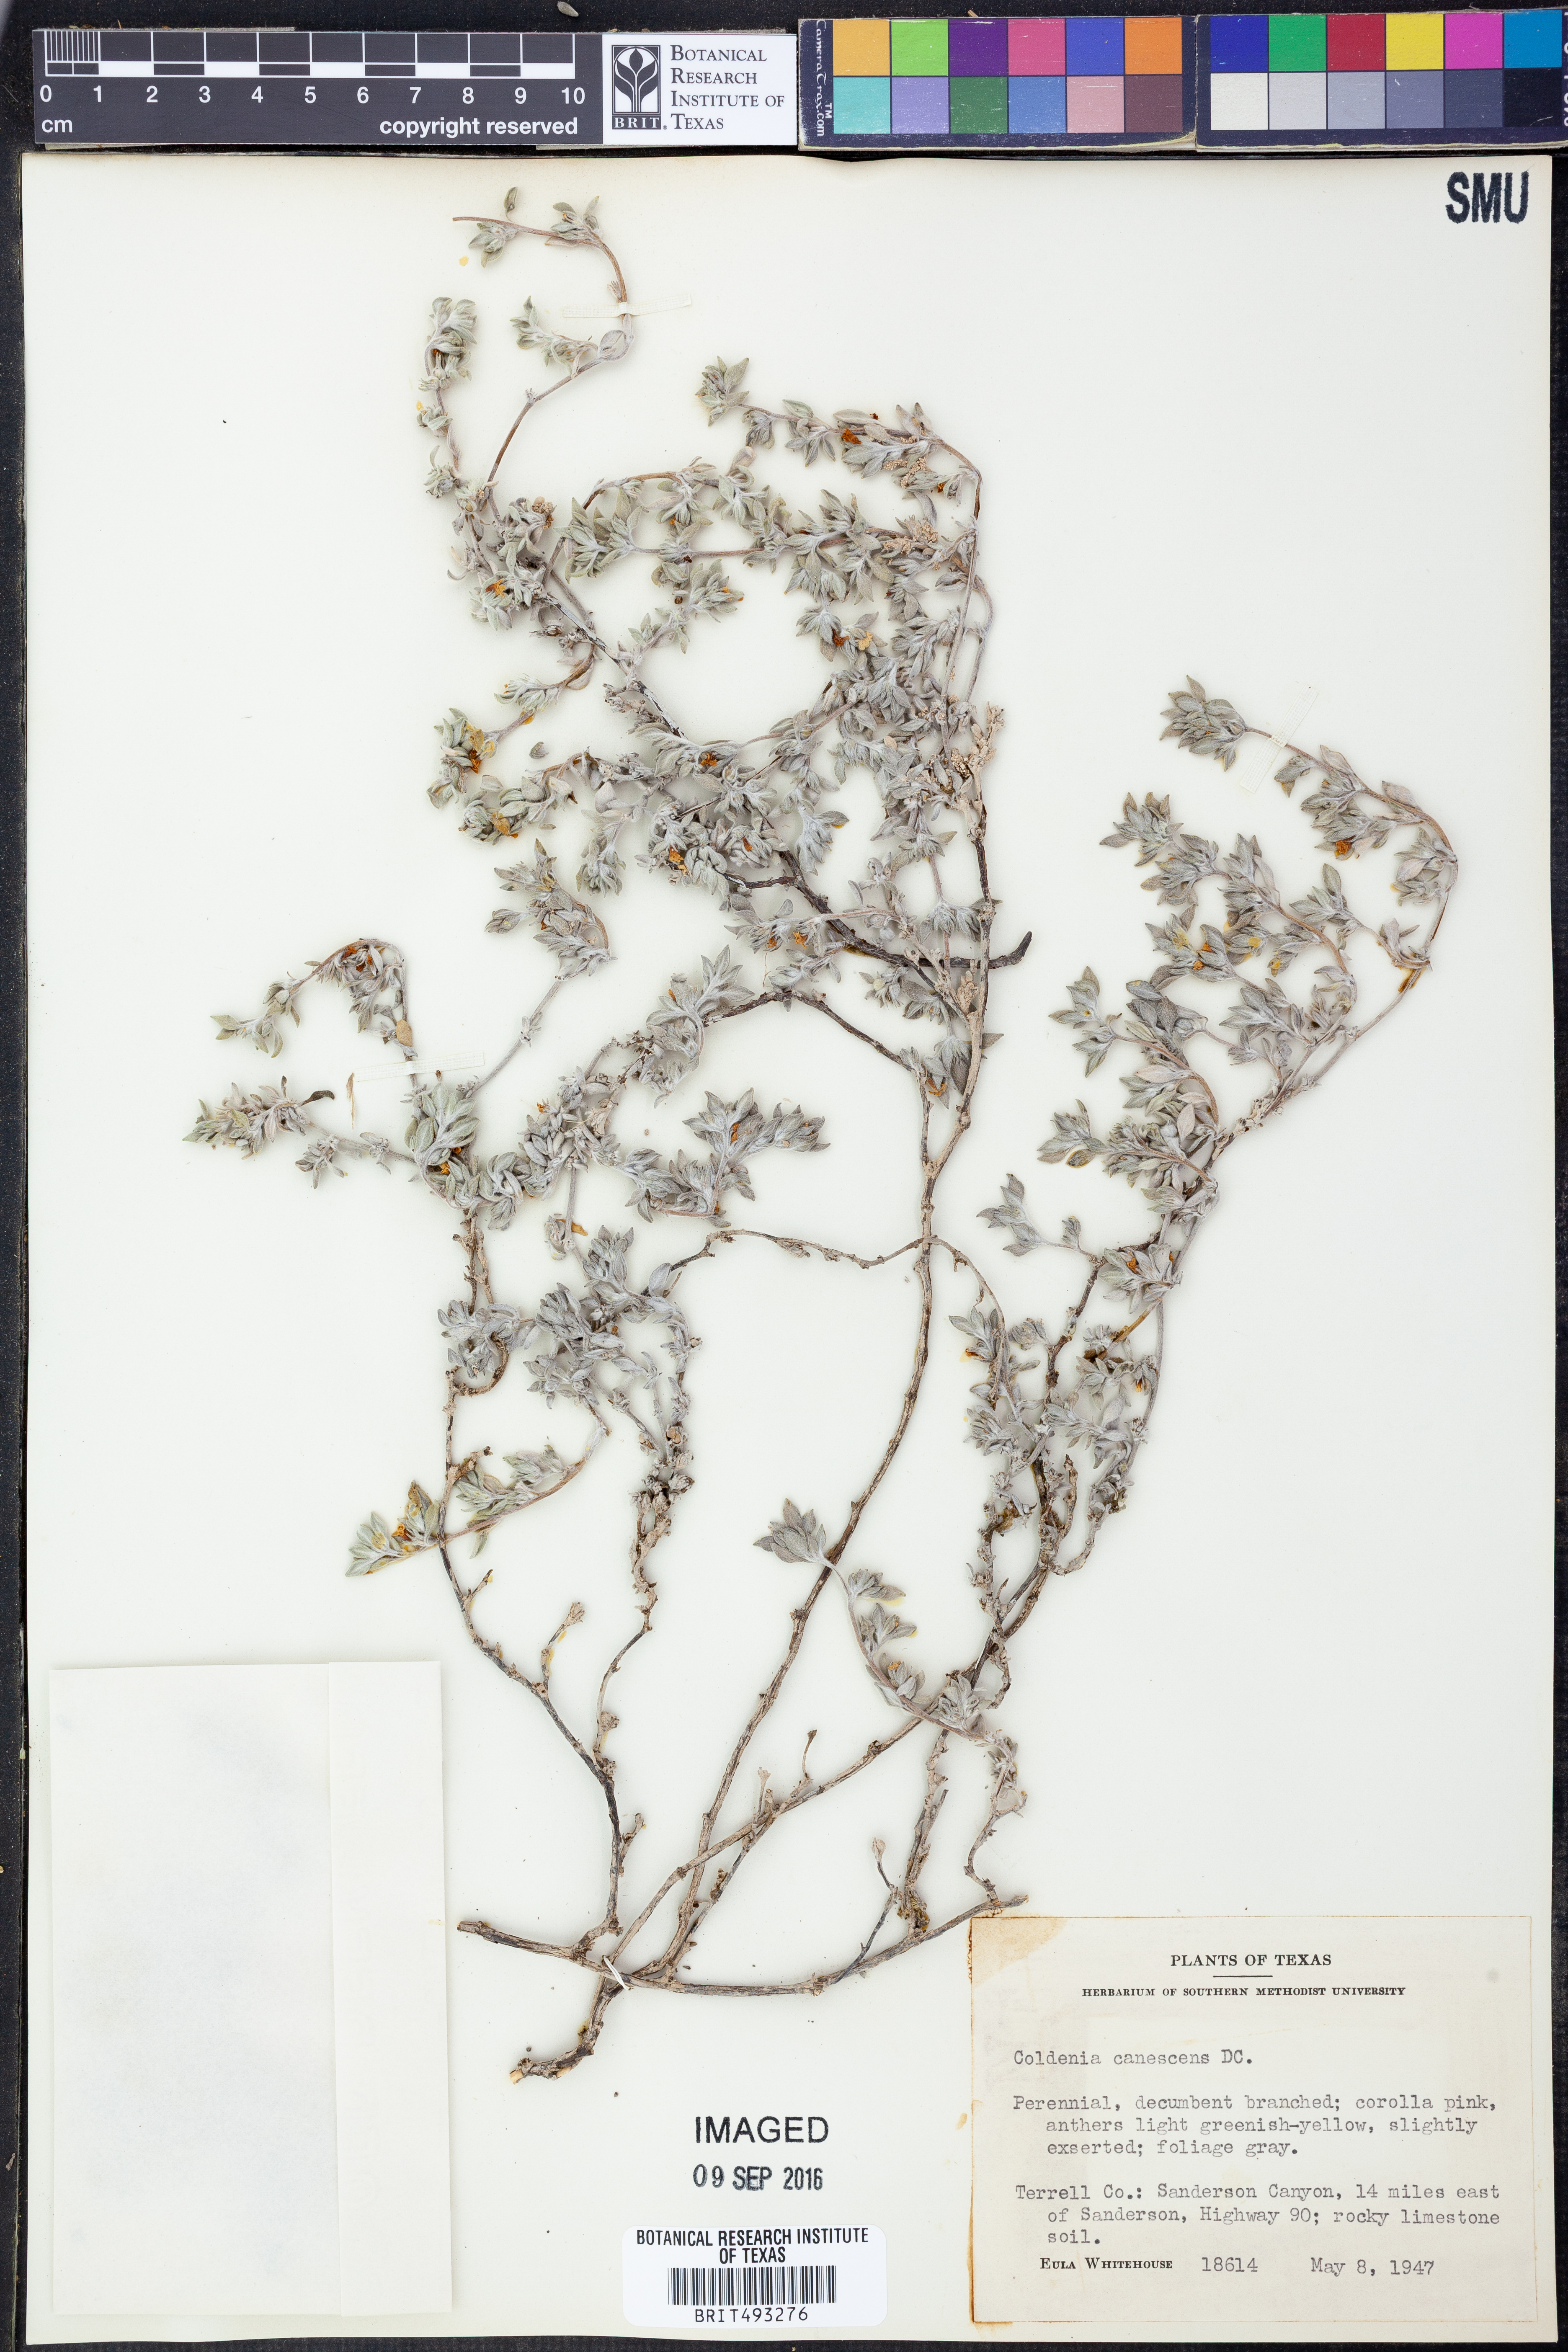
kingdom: Plantae
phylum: Tracheophyta
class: Magnoliopsida
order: Boraginales
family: Ehretiaceae
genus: Tiquilia
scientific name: Tiquilia canescens
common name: Hairy tiquilia
